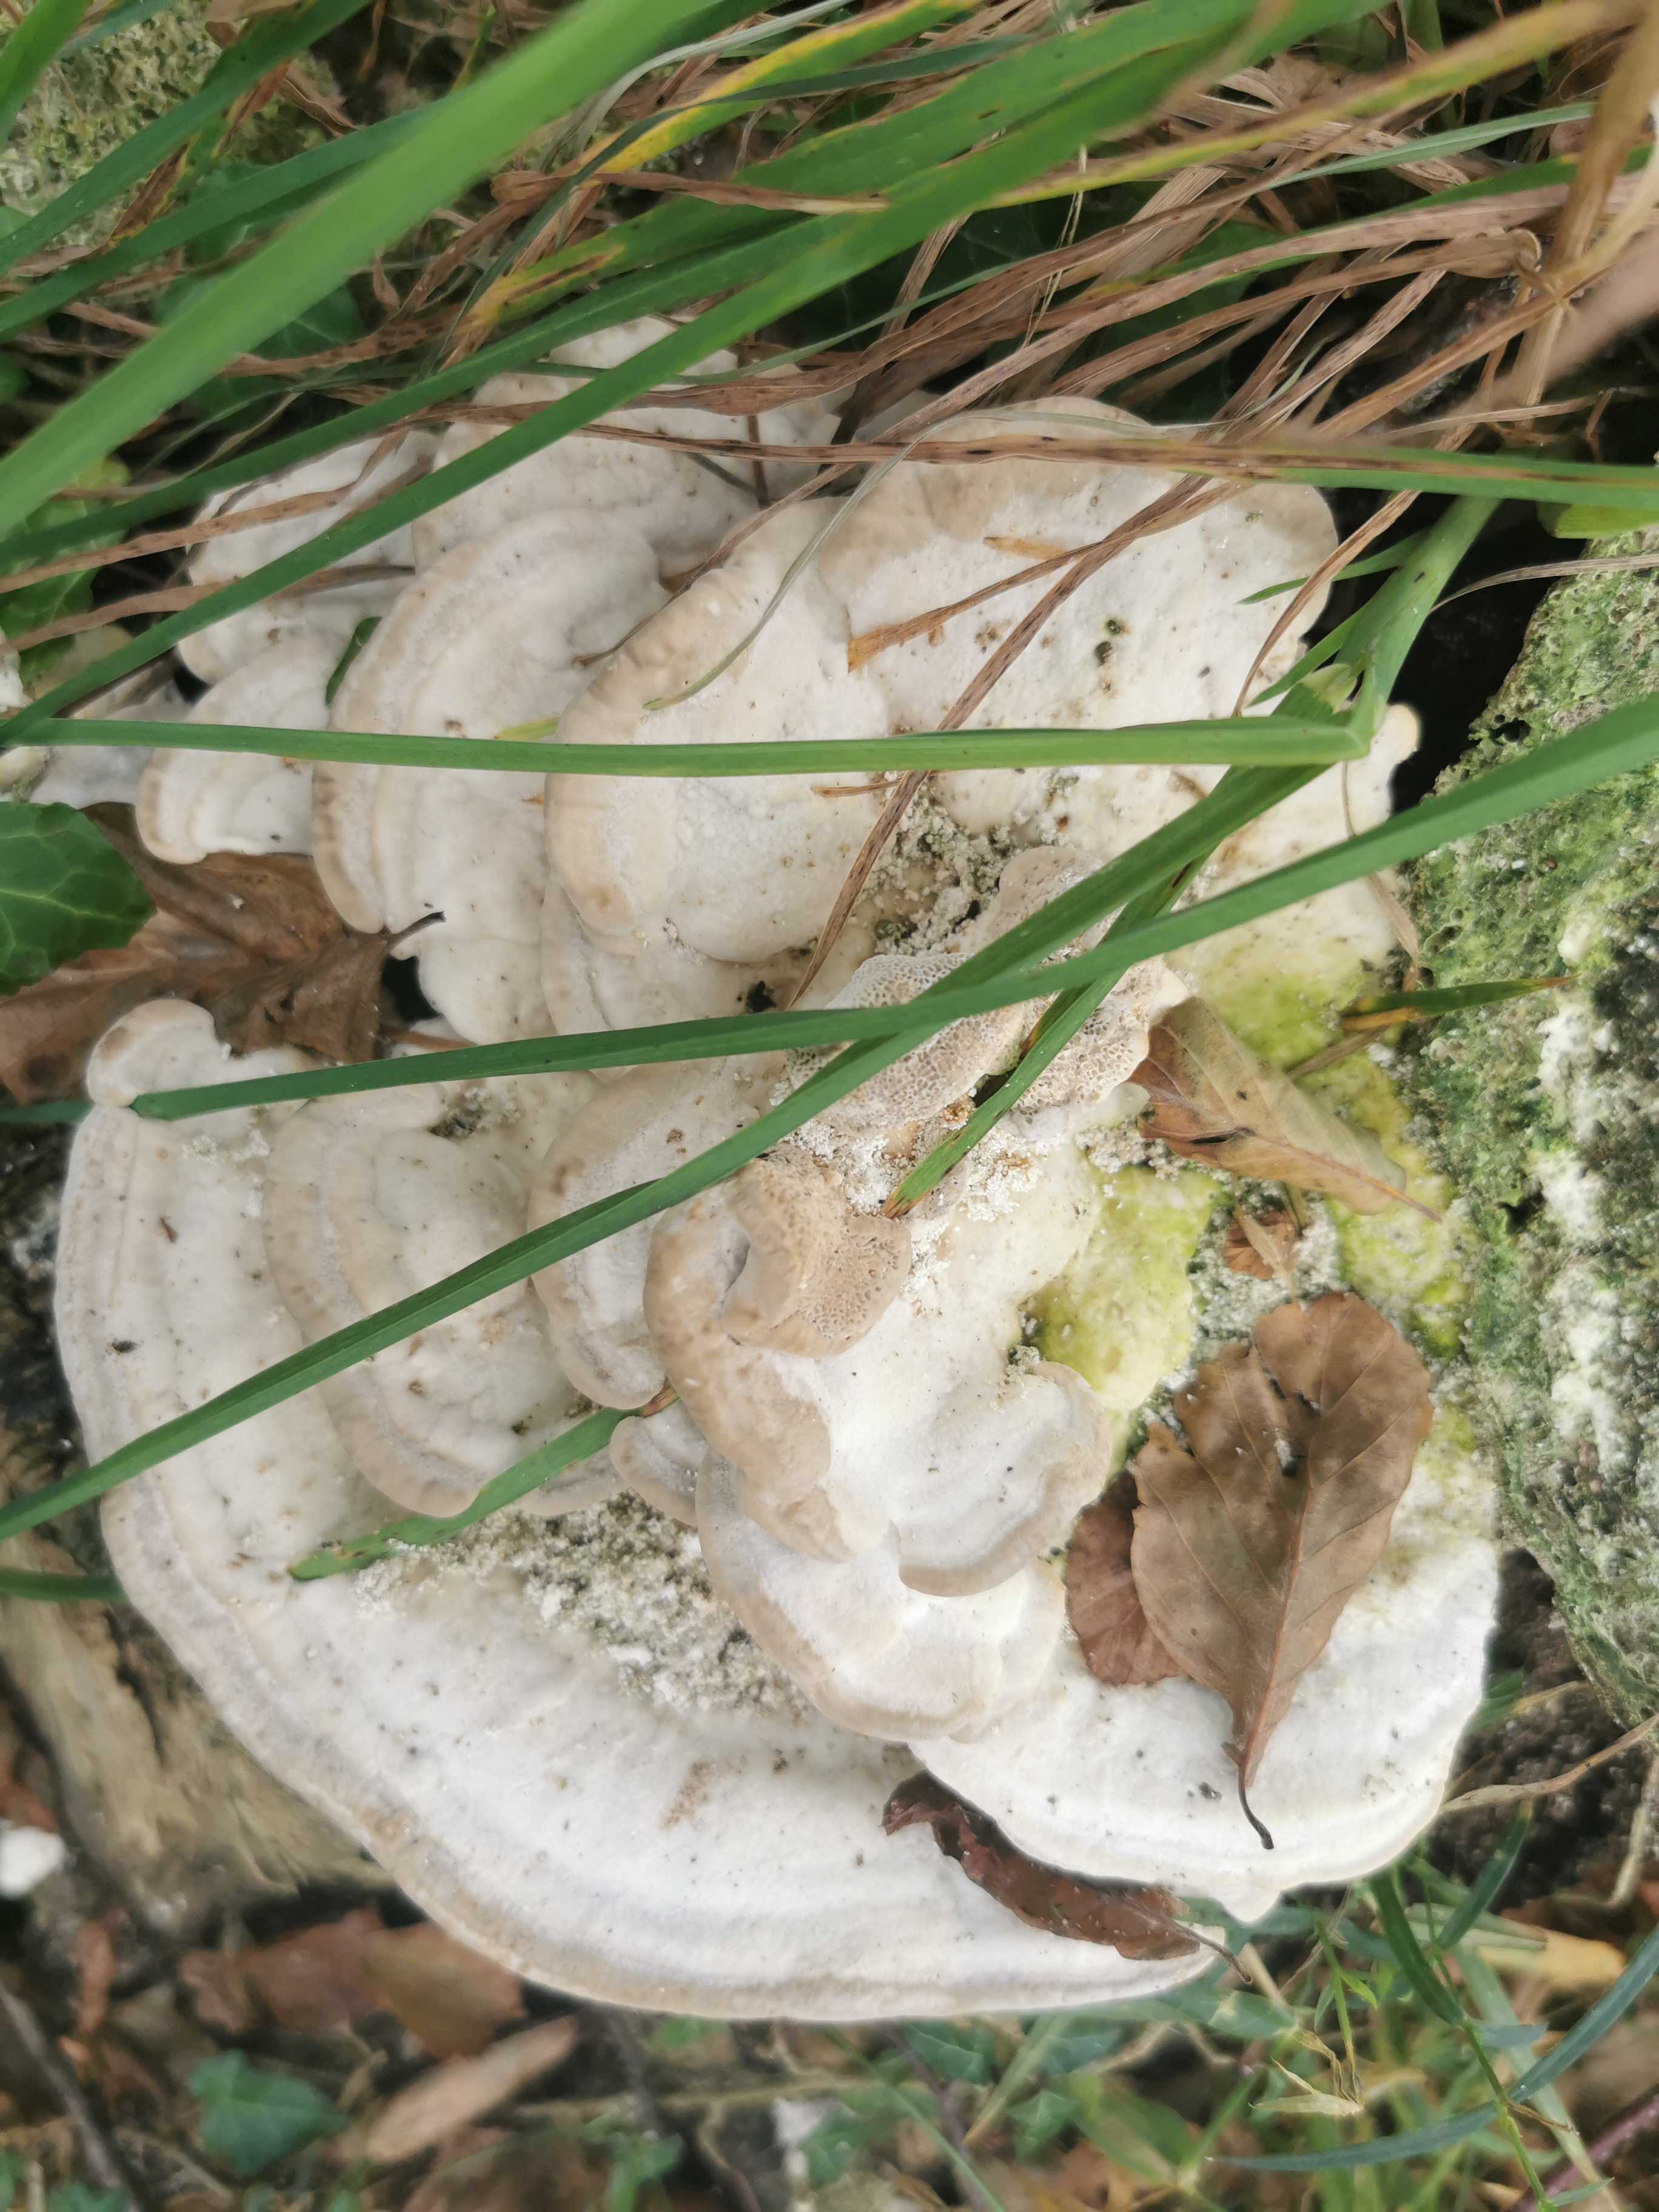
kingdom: Fungi
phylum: Basidiomycota
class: Agaricomycetes
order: Polyporales
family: Polyporaceae
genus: Trametes
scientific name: Trametes gibbosa
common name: puklet læderporesvamp
